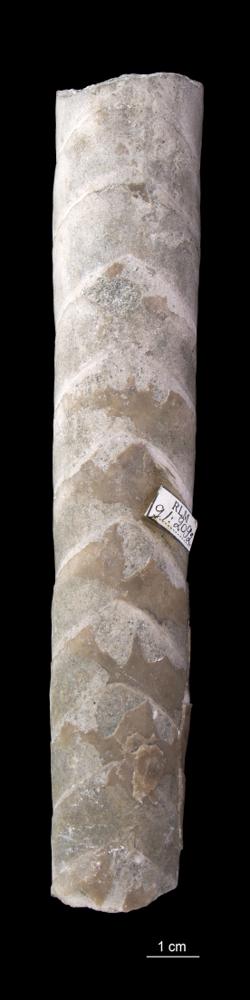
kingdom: Animalia
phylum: Mollusca
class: Cephalopoda
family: Endoceratidae
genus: Endoceras
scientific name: Endoceras
